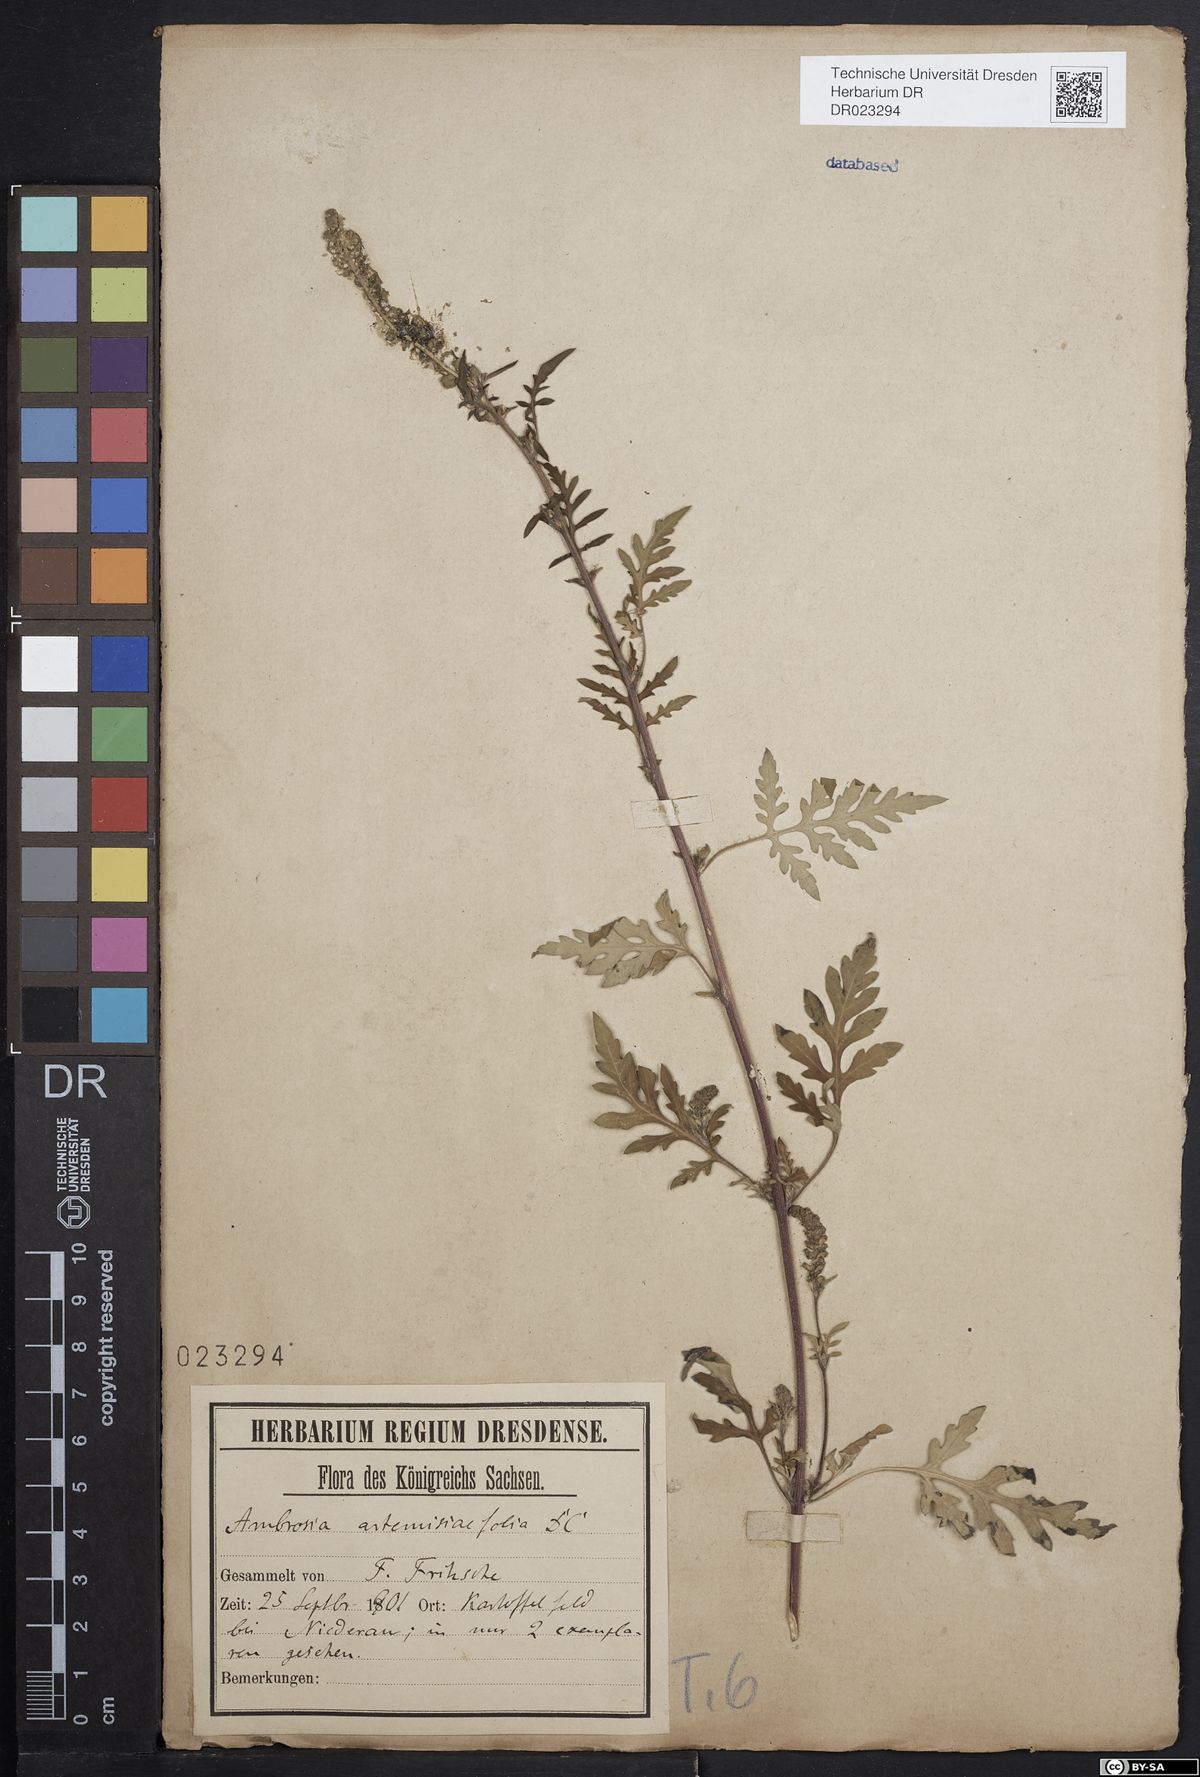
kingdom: Plantae
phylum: Tracheophyta
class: Magnoliopsida
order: Asterales
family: Asteraceae
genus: Ambrosia
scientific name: Ambrosia artemisiifolia
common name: Annual ragweed
